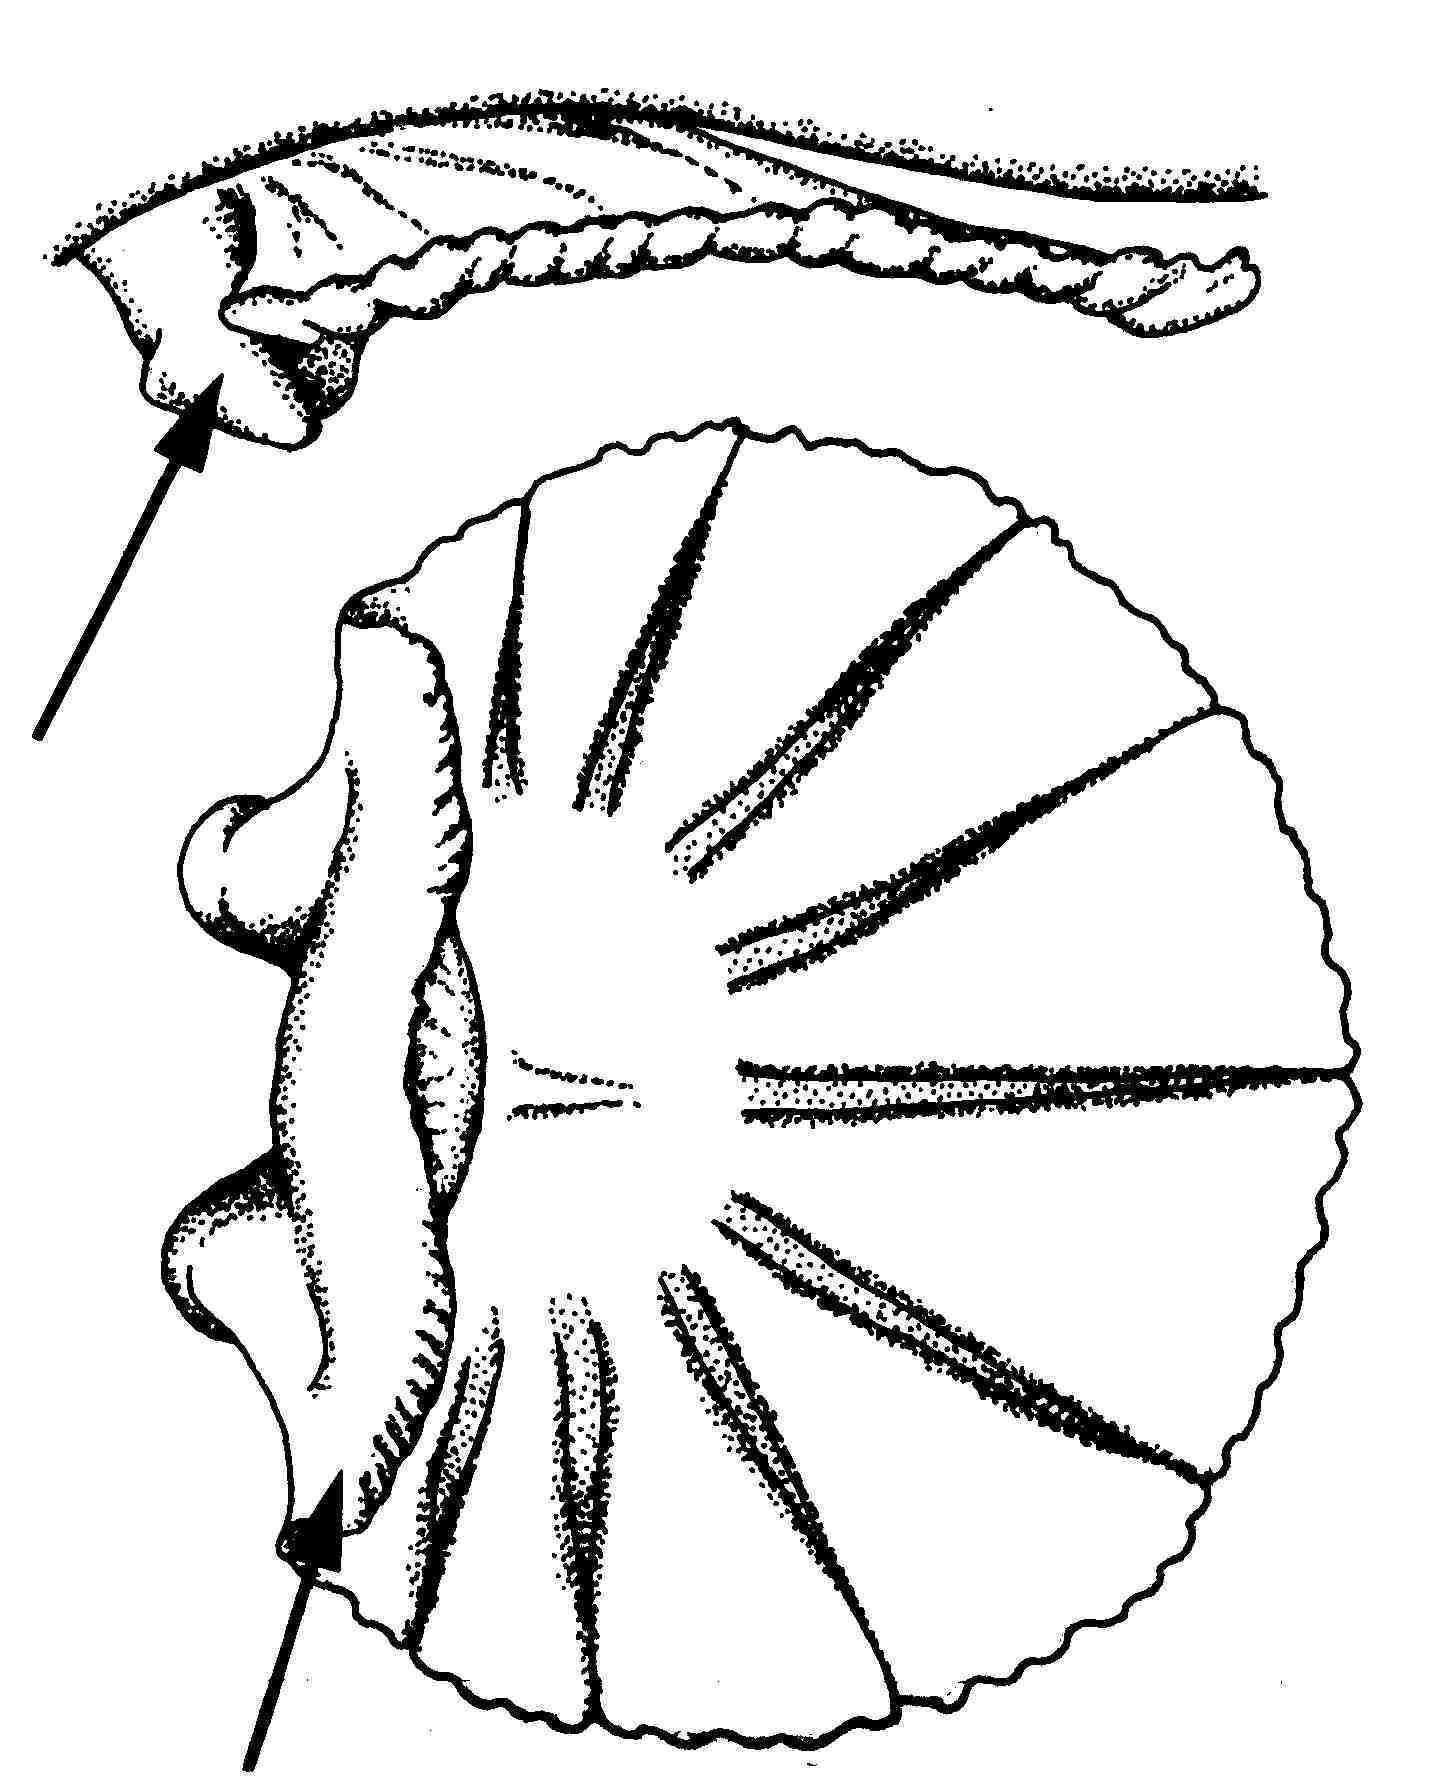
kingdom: Animalia
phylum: Chordata
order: Perciformes
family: Gobiidae
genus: Sicyopus
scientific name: Sicyopus
